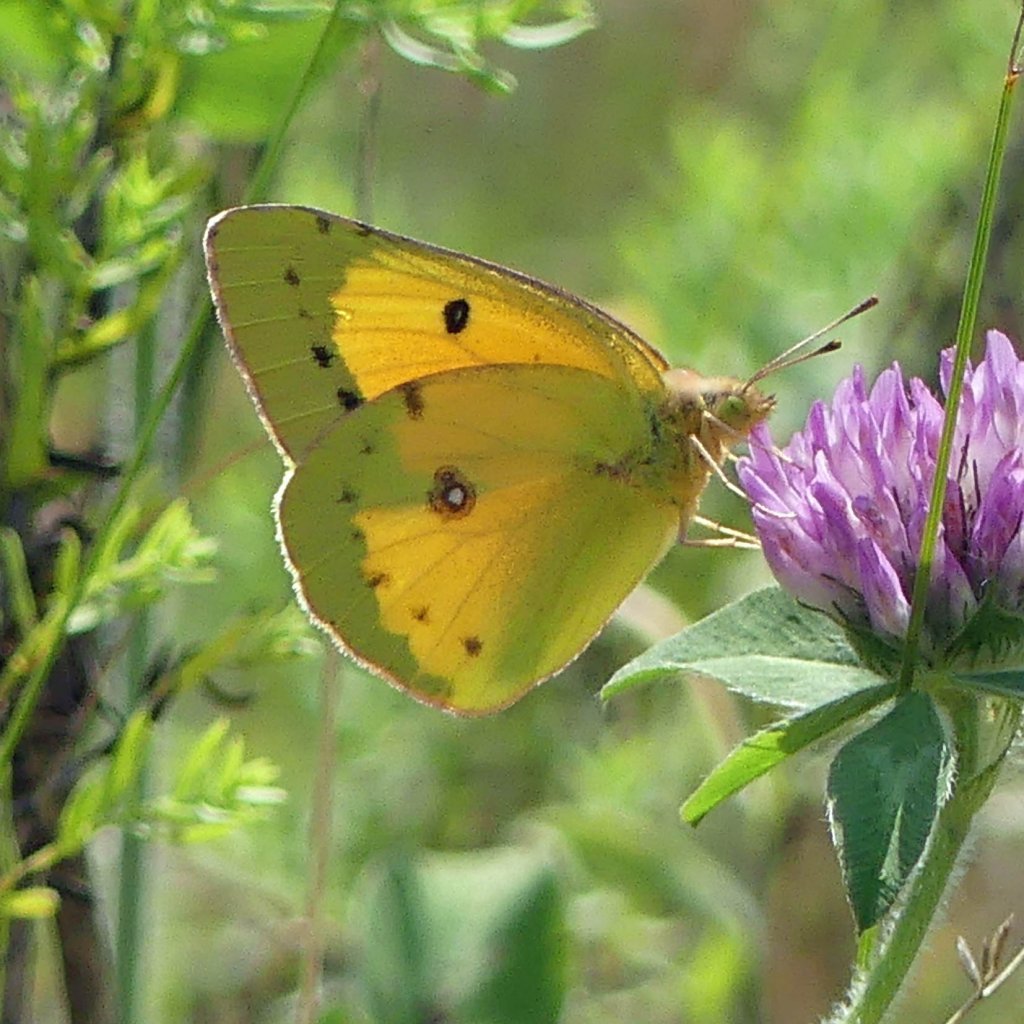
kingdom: Animalia
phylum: Arthropoda
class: Insecta
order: Lepidoptera
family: Pieridae
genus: Colias
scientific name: Colias eurytheme
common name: Orange Sulphur
